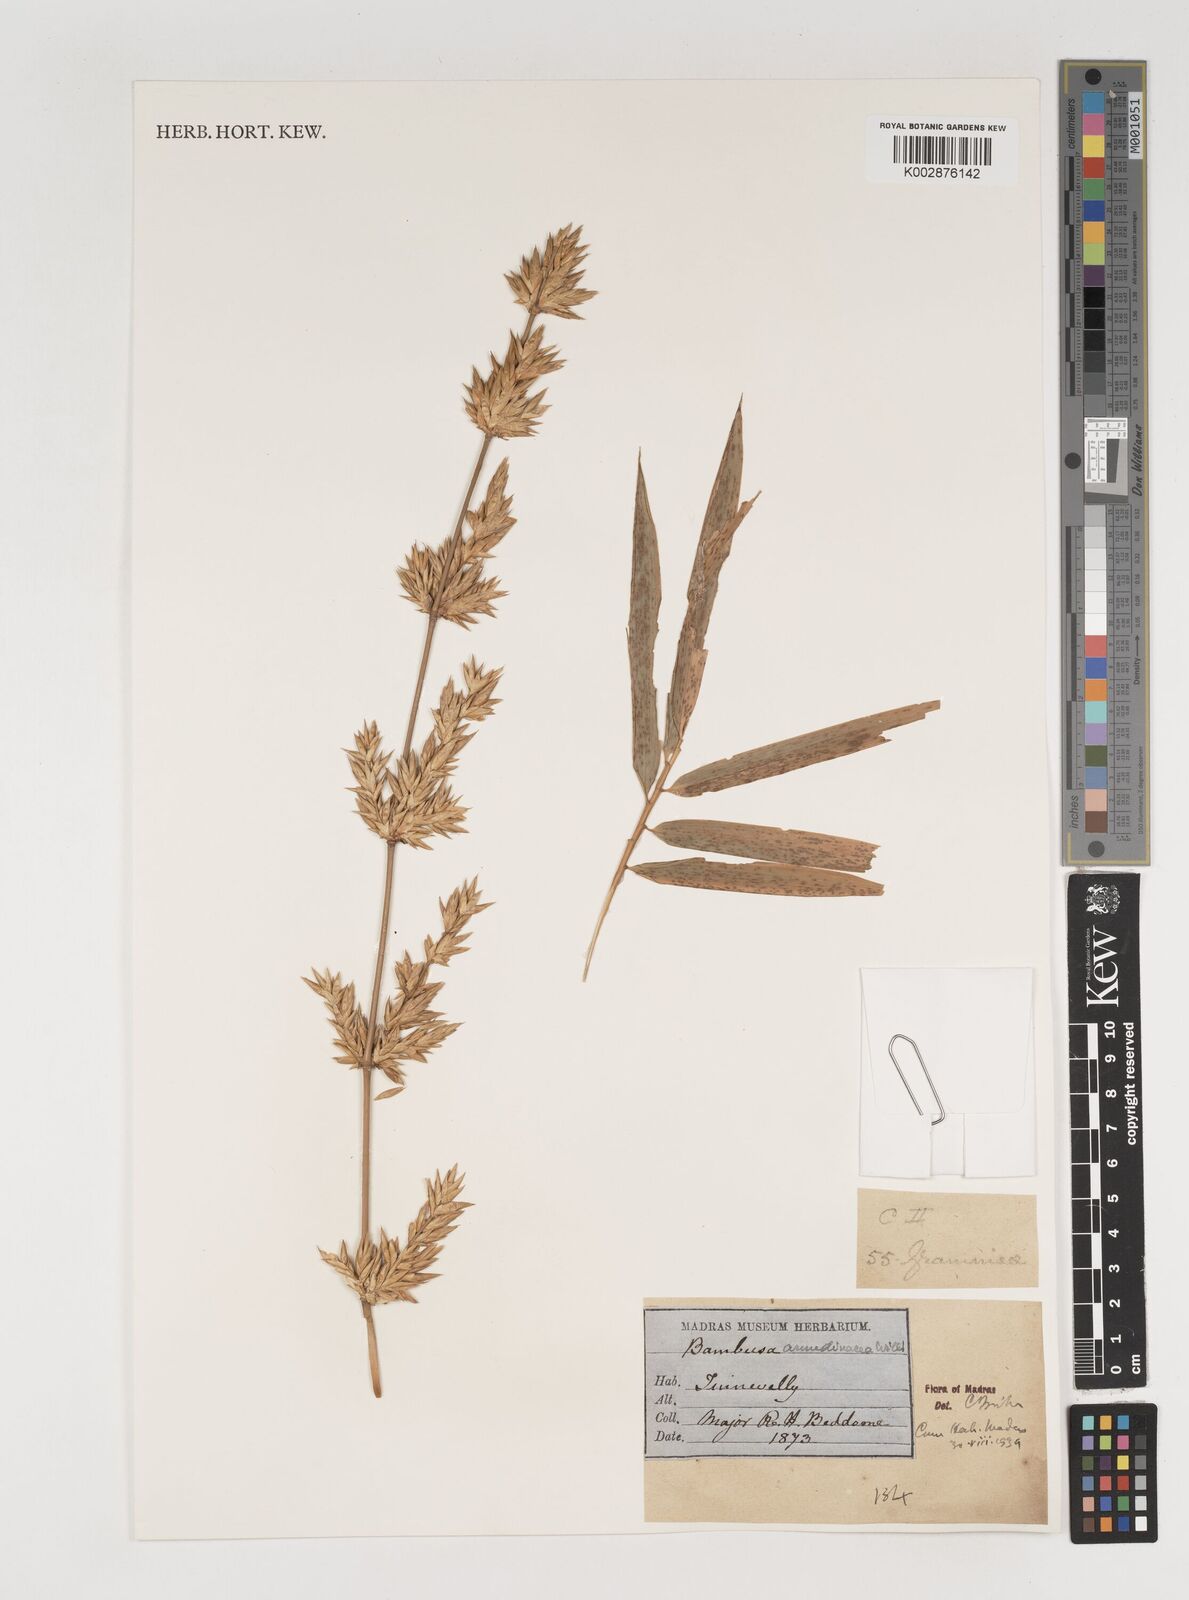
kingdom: Plantae
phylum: Tracheophyta
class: Liliopsida
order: Poales
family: Poaceae
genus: Bambusa
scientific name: Bambusa bambos
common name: Indian thorny bamboo
